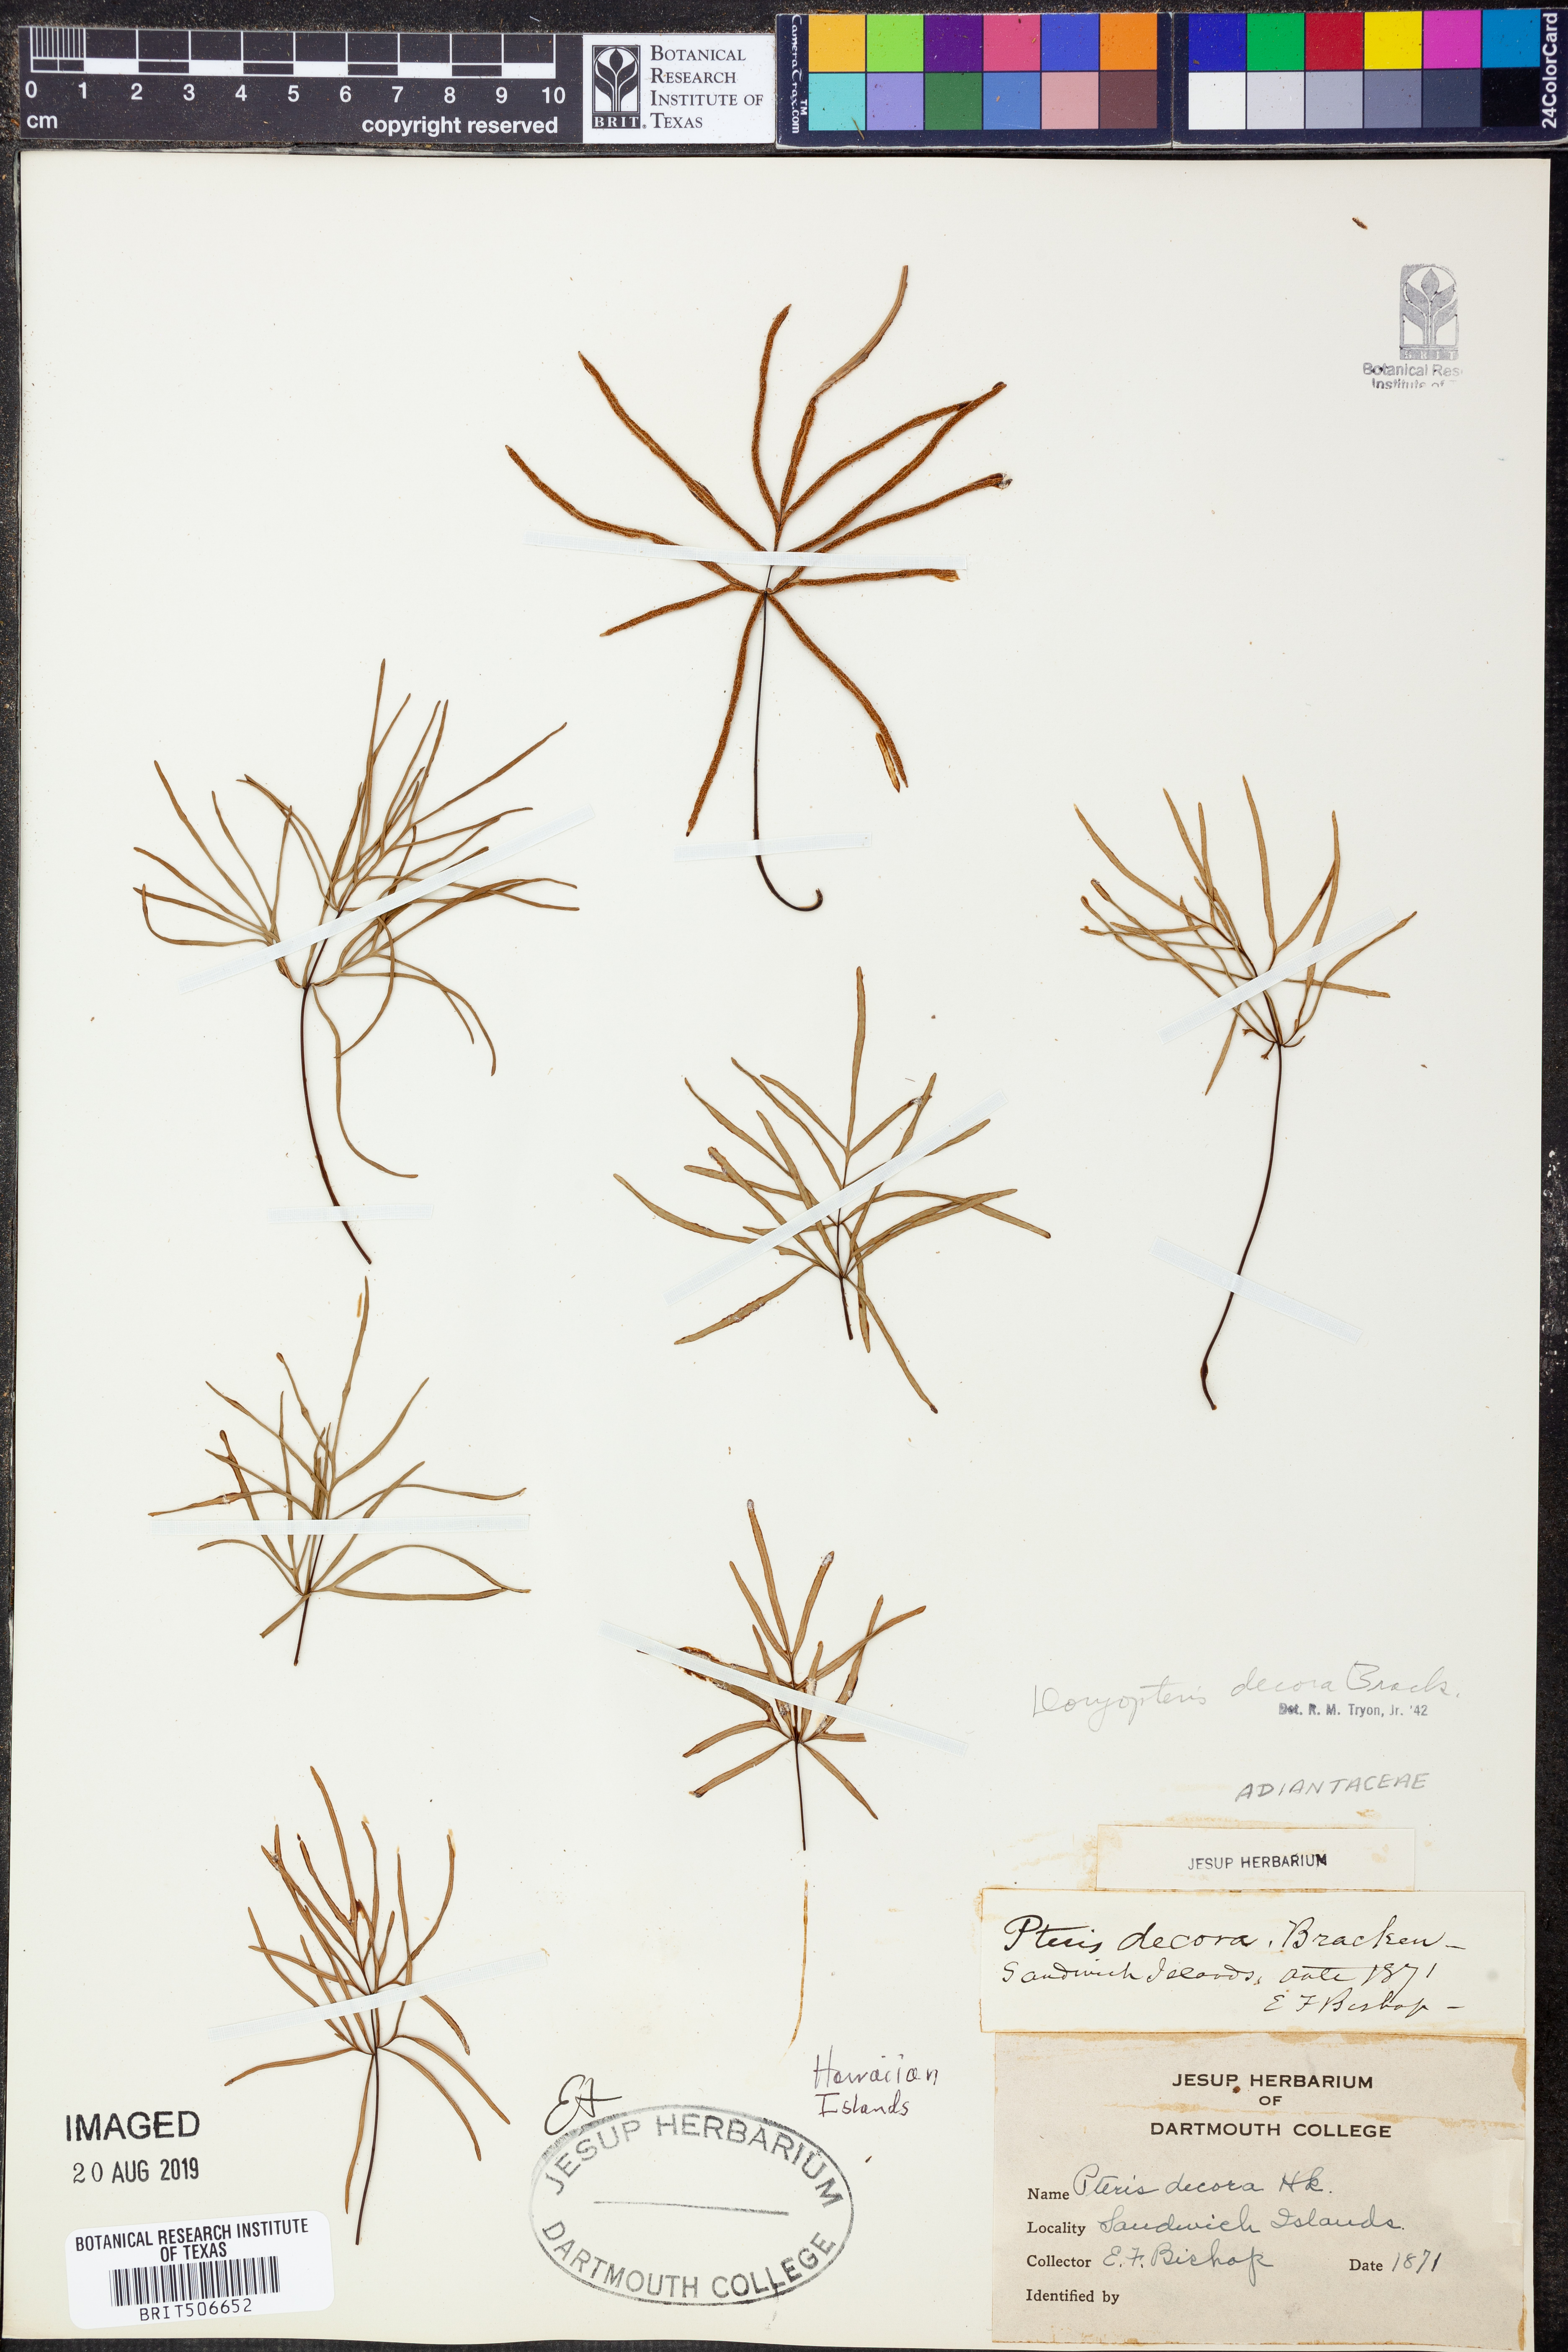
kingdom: Plantae
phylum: Tracheophyta
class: Polypodiopsida
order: Polypodiales
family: Pteridaceae
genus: Doryopteris
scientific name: Doryopteris decora
